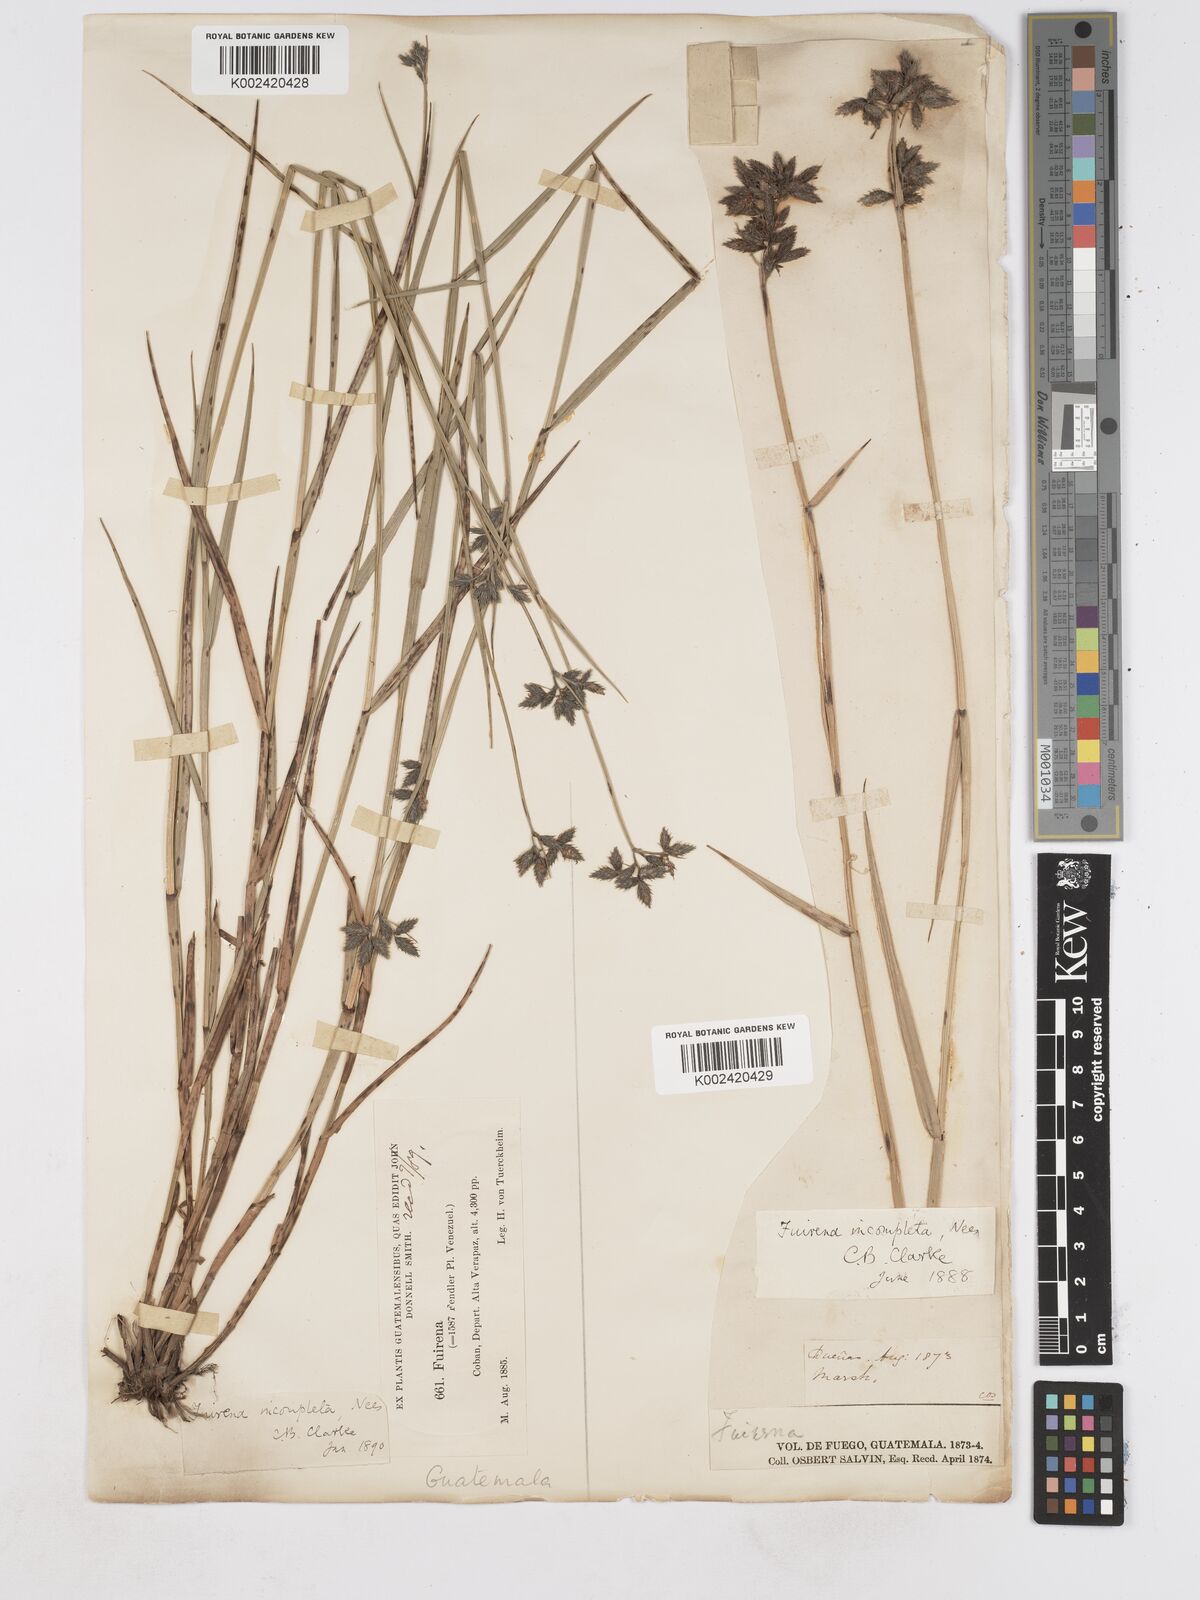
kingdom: Plantae
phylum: Tracheophyta
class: Liliopsida
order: Poales
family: Cyperaceae
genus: Fuirena
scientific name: Fuirena incompleta
